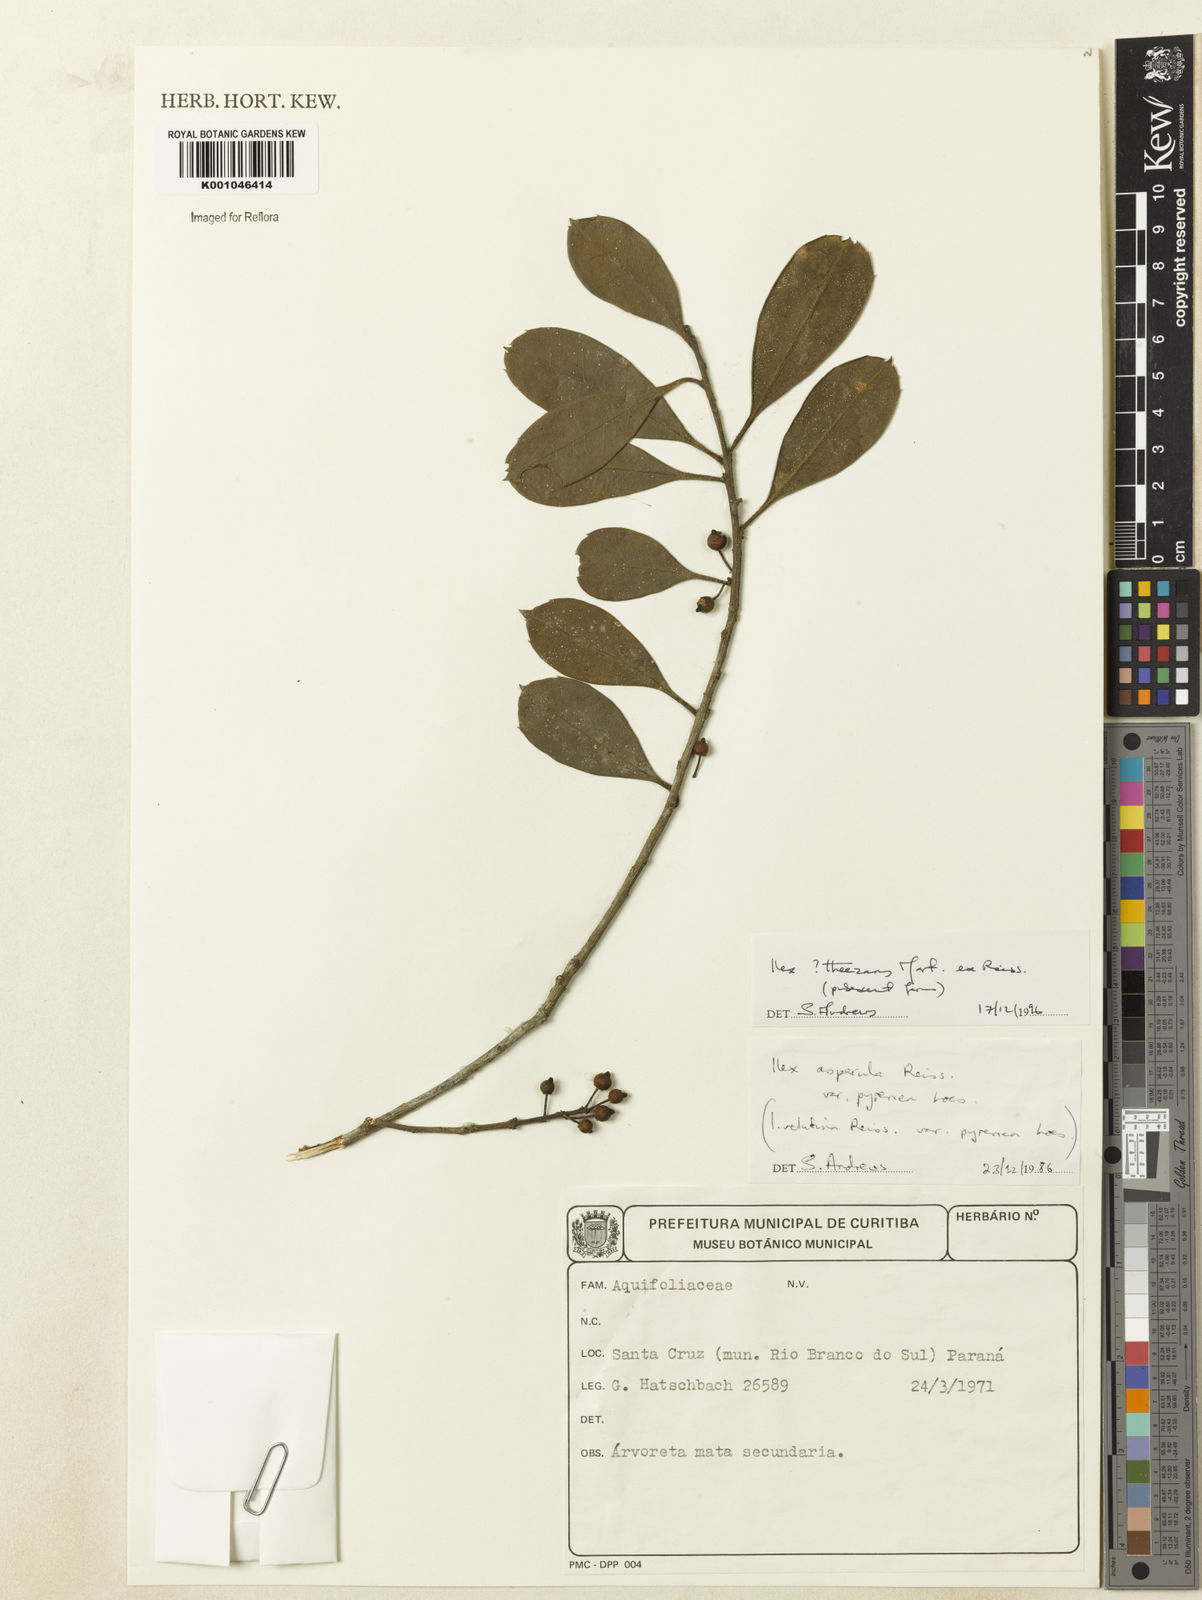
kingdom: Plantae
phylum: Tracheophyta
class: Magnoliopsida
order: Aquifoliales
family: Aquifoliaceae
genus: Ilex
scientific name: Ilex paraguariensis
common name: Paraguay tea
